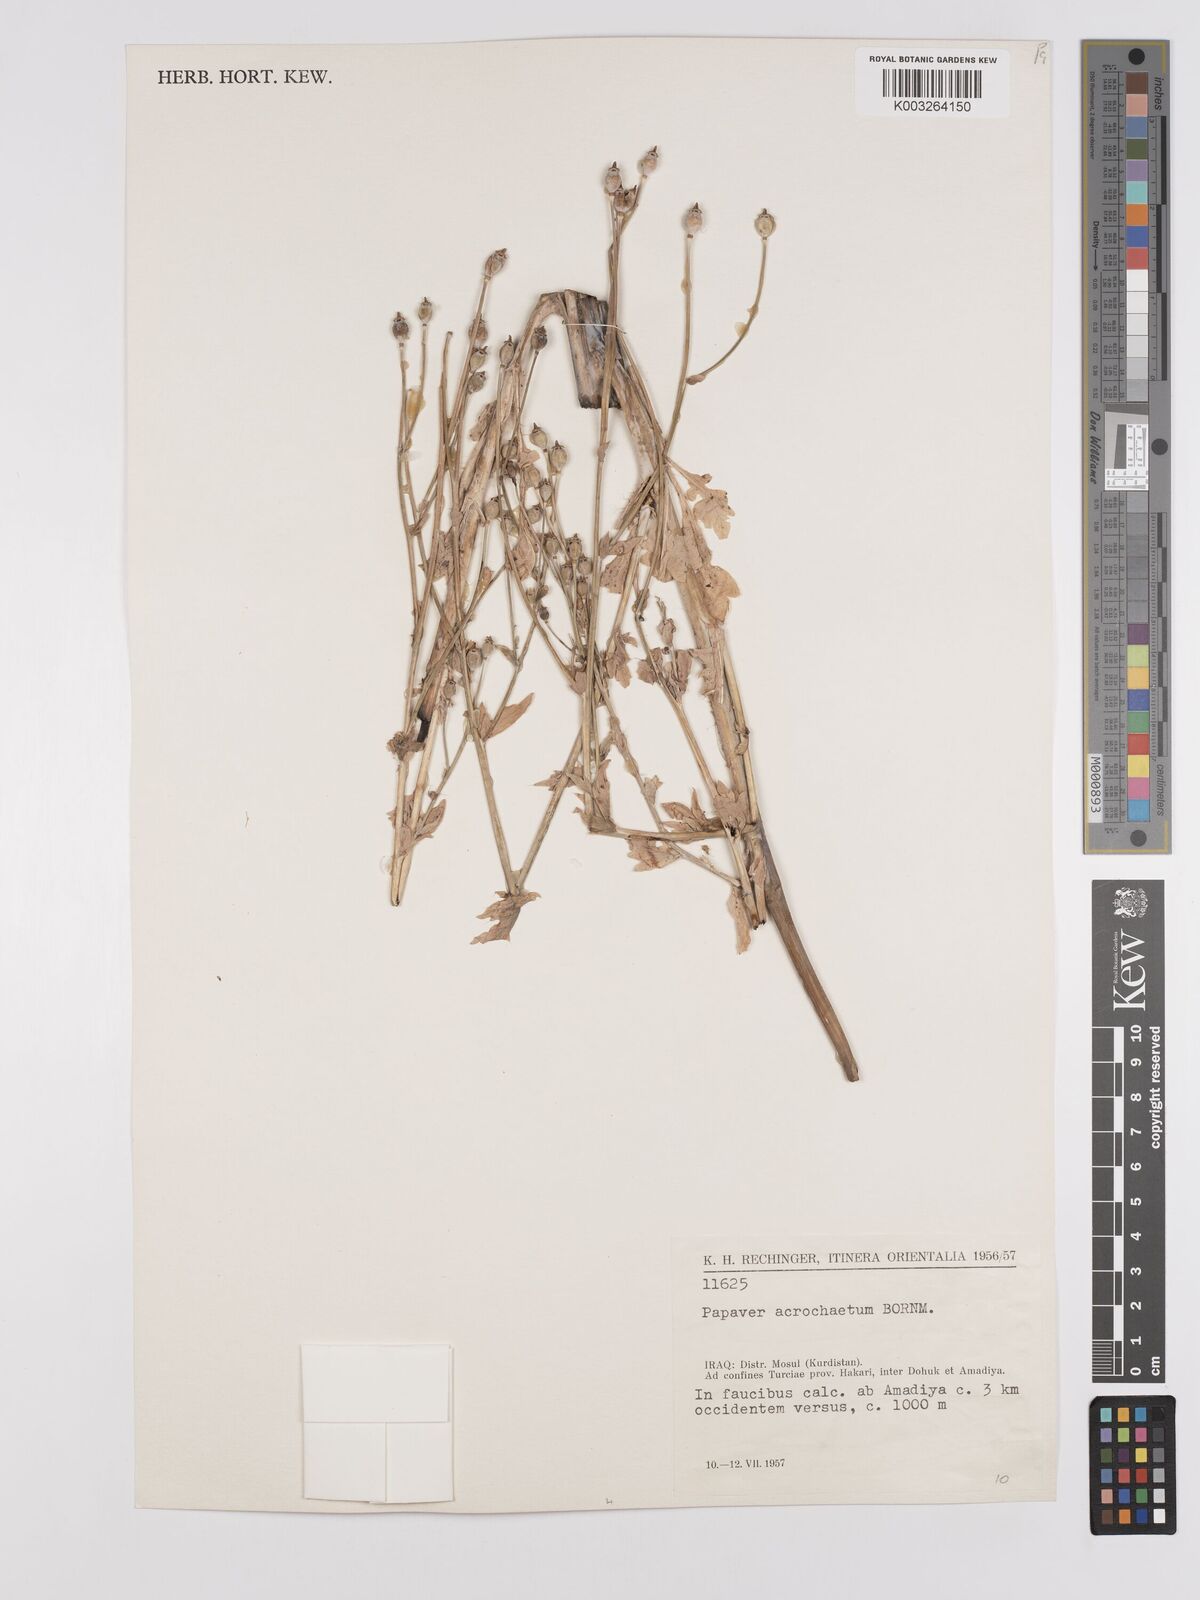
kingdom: Plantae
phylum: Tracheophyta
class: Magnoliopsida
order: Ranunculales
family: Papaveraceae
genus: Papaver
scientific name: Papaver acrochaetum
